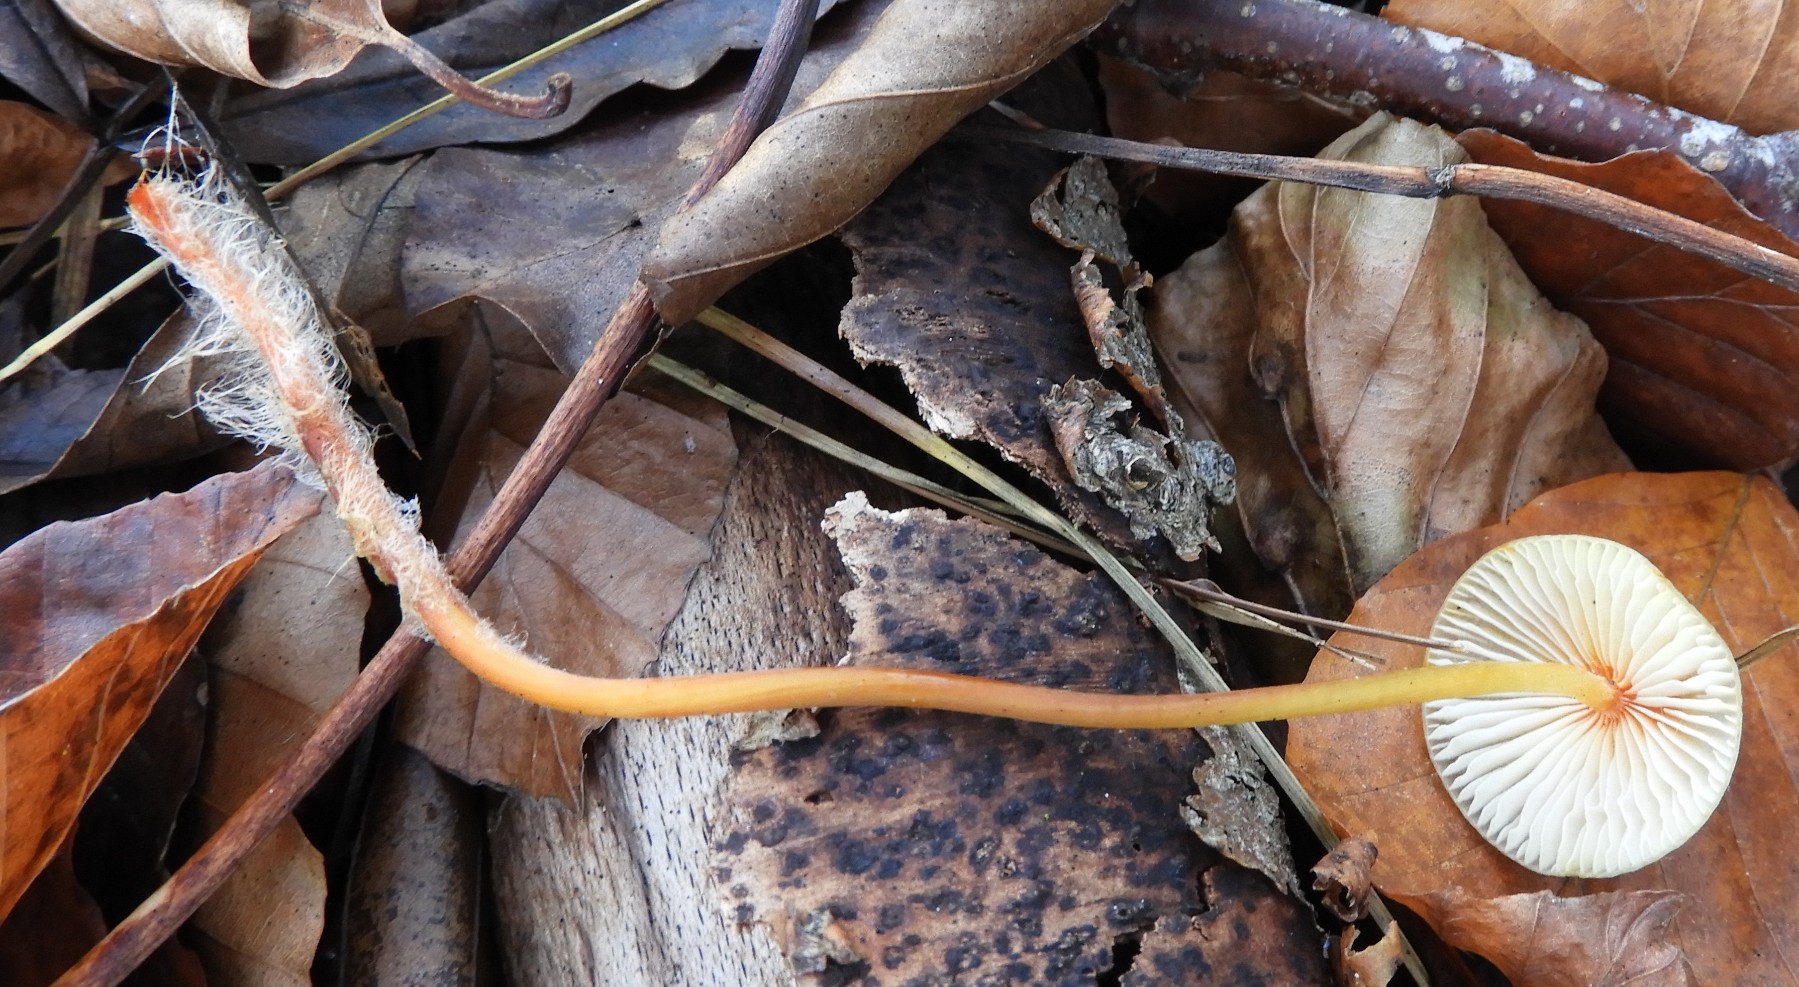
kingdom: Fungi
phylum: Basidiomycota
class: Agaricomycetes
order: Agaricales
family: Mycenaceae
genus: Mycena
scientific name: Mycena crocata
